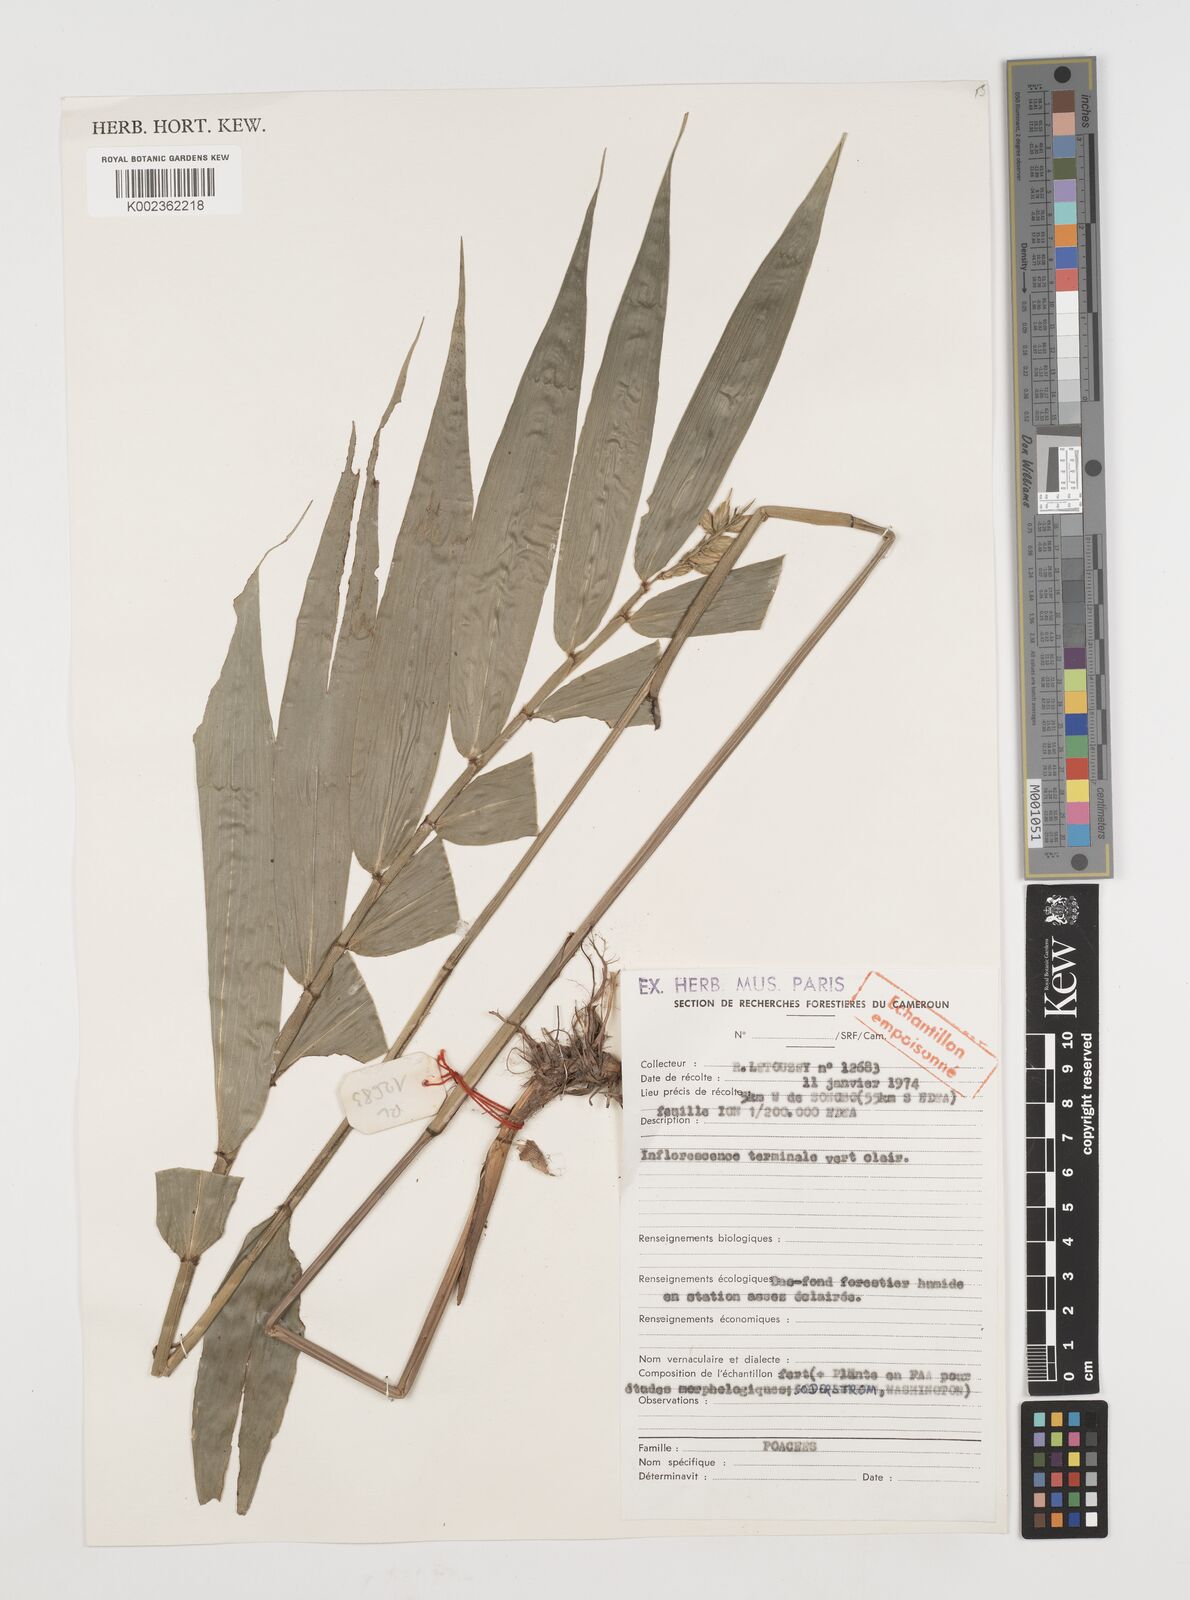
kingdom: Plantae
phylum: Tracheophyta
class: Liliopsida
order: Poales
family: Poaceae
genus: Puelia
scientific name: Puelia ciliata
